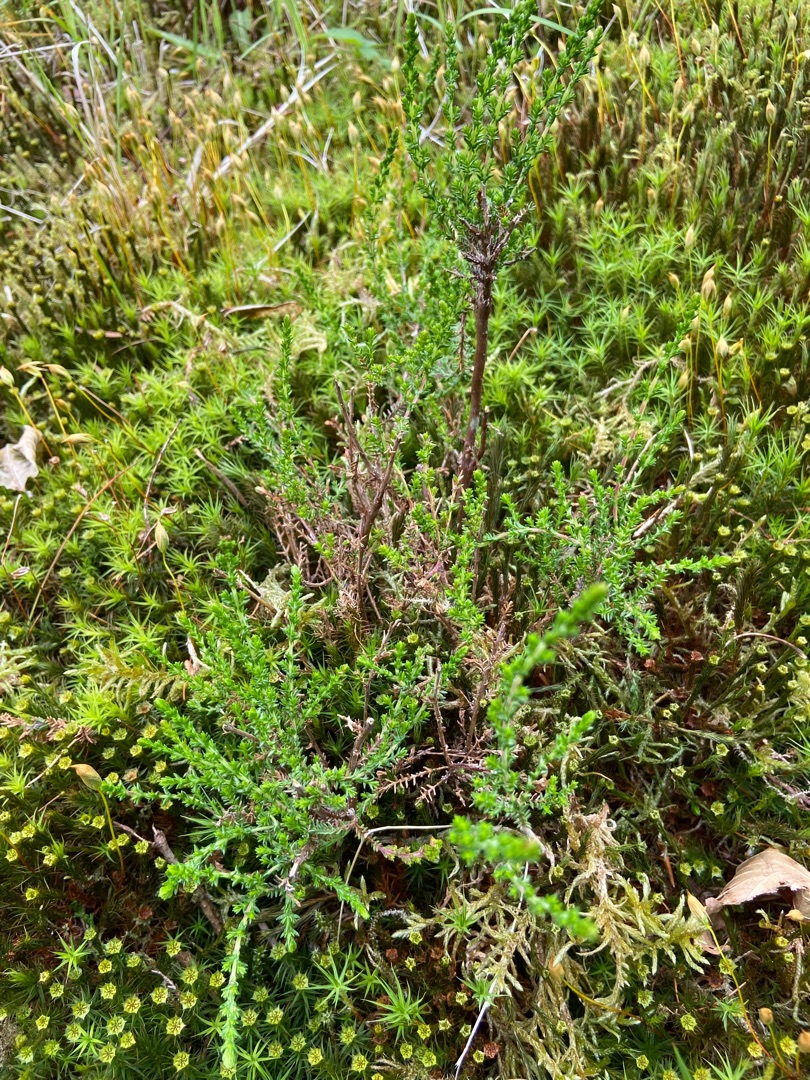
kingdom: Plantae
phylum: Tracheophyta
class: Magnoliopsida
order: Ericales
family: Ericaceae
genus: Calluna
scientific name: Calluna vulgaris
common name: Hedelyng
